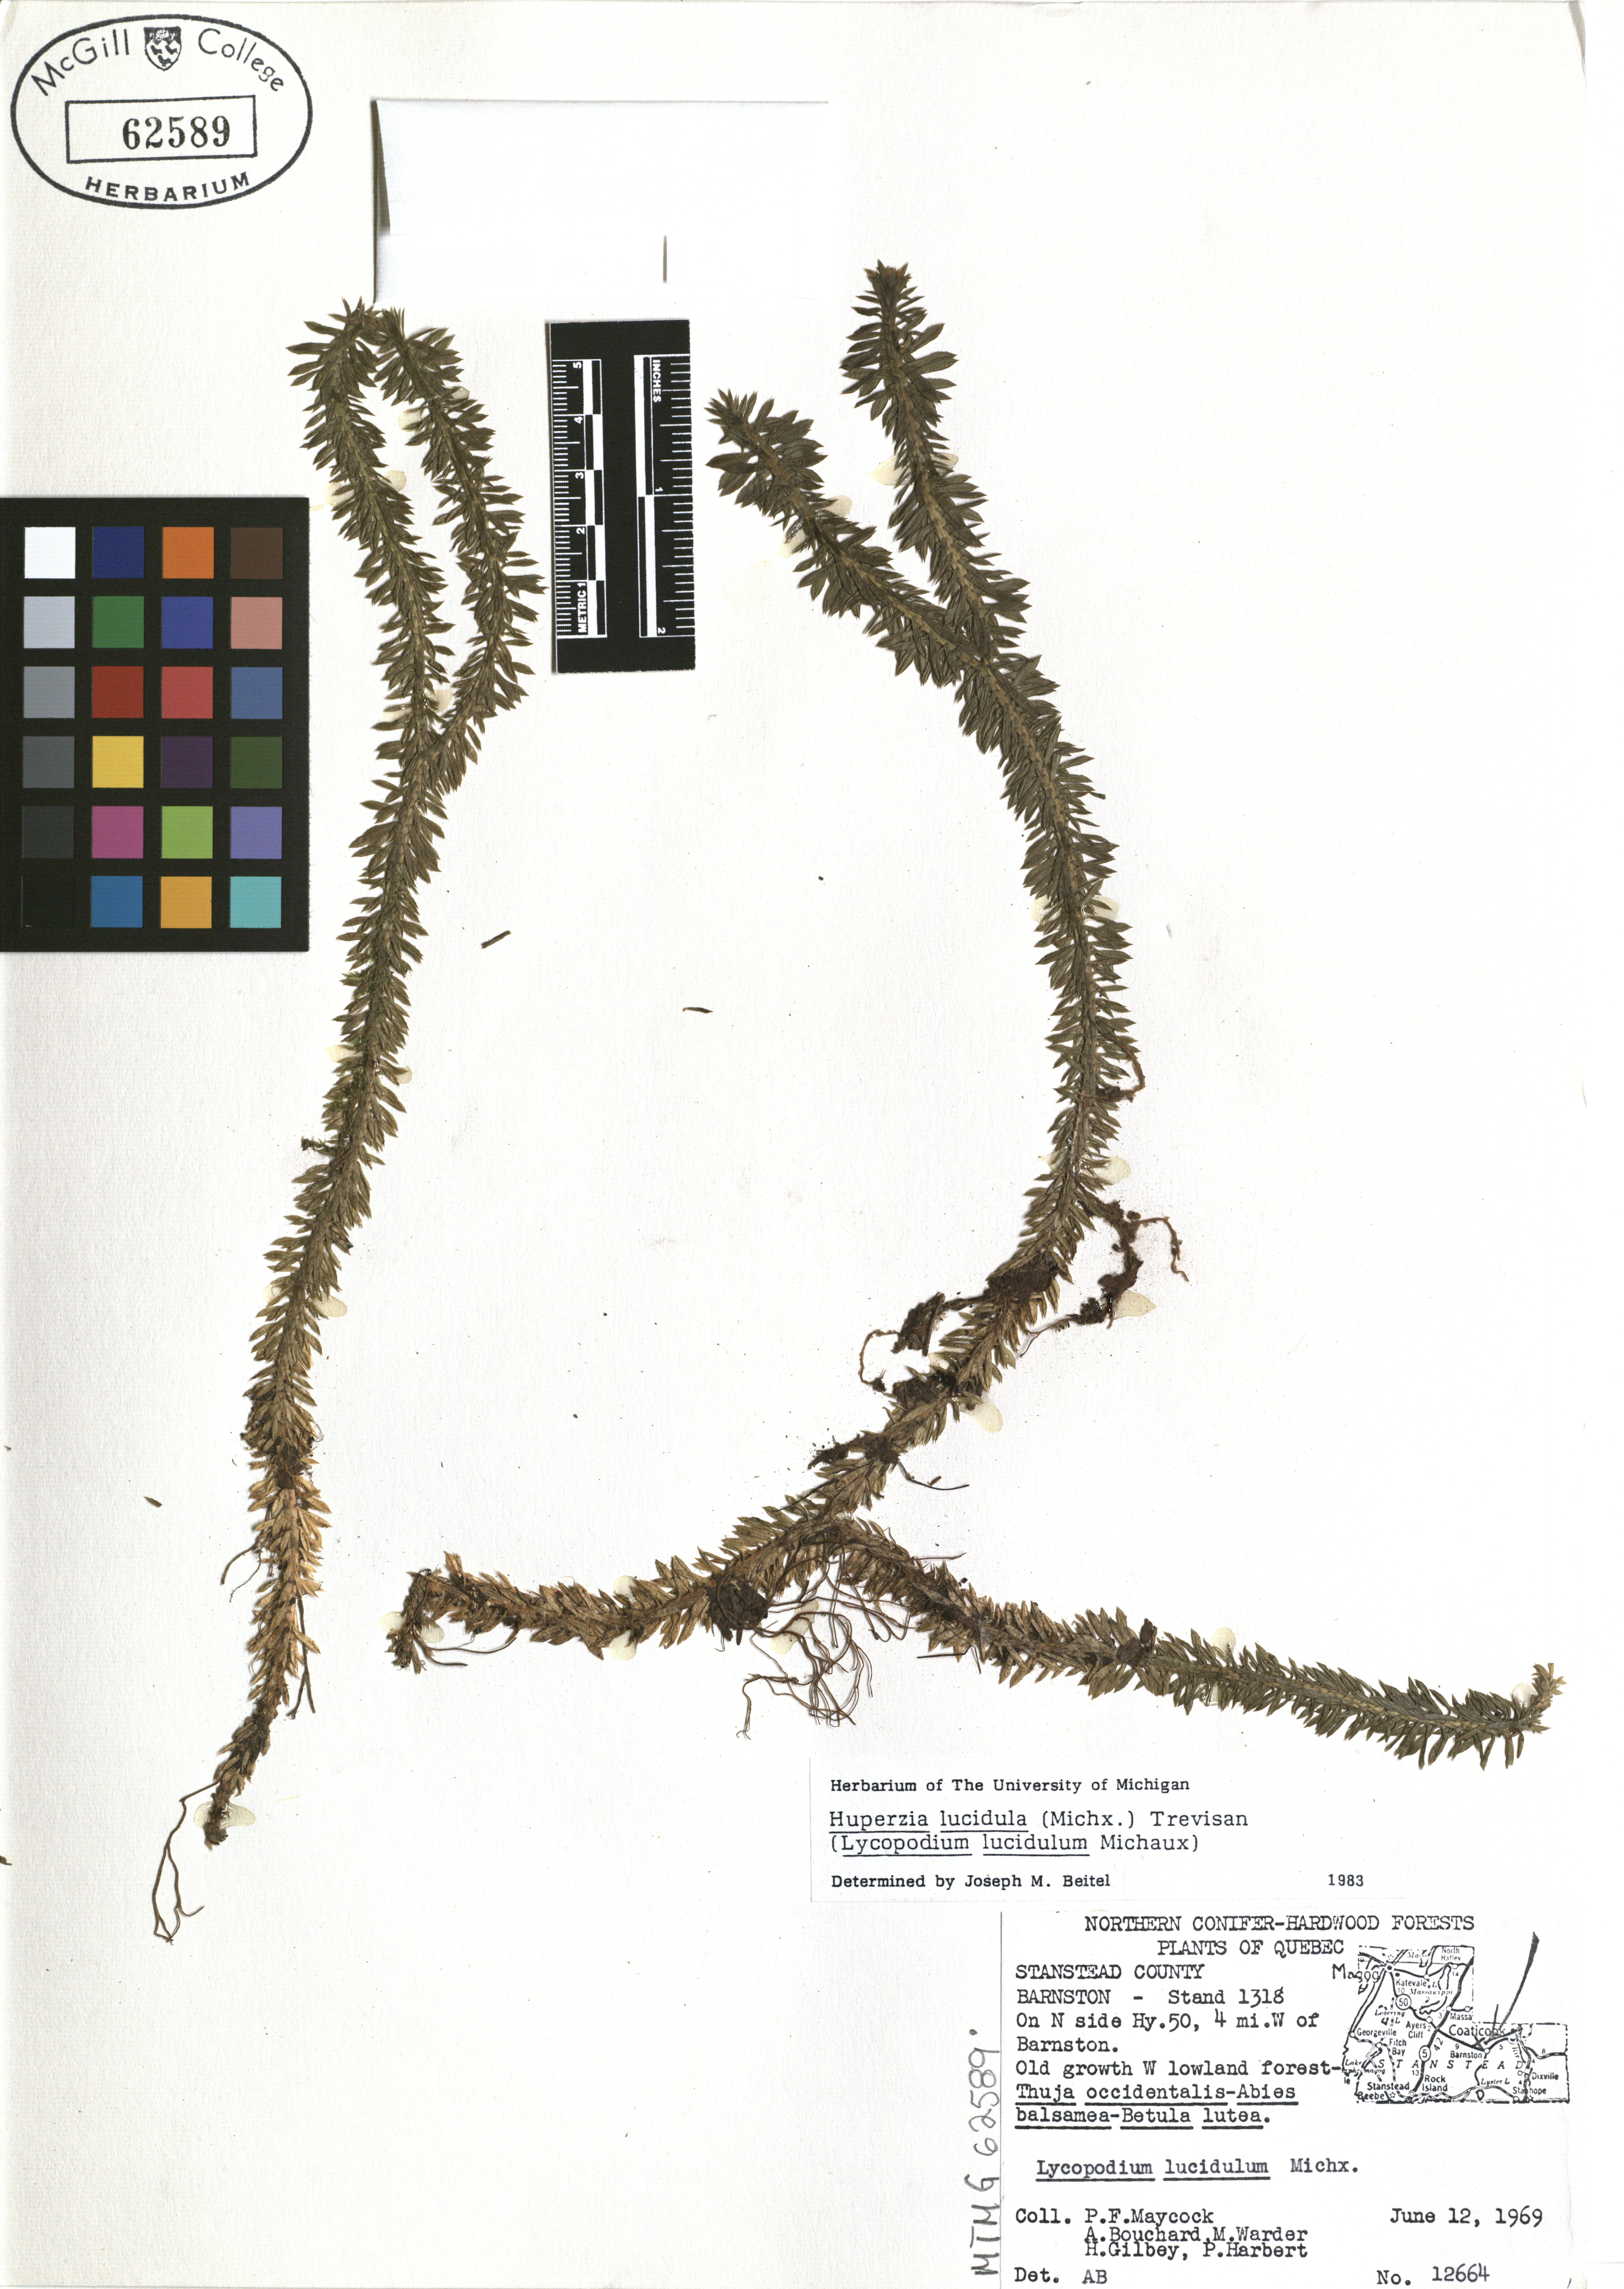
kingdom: Plantae
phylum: Tracheophyta
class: Lycopodiopsida
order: Lycopodiales
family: Lycopodiaceae
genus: Huperzia
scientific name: Huperzia lucidula
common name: Shining clubmoss
